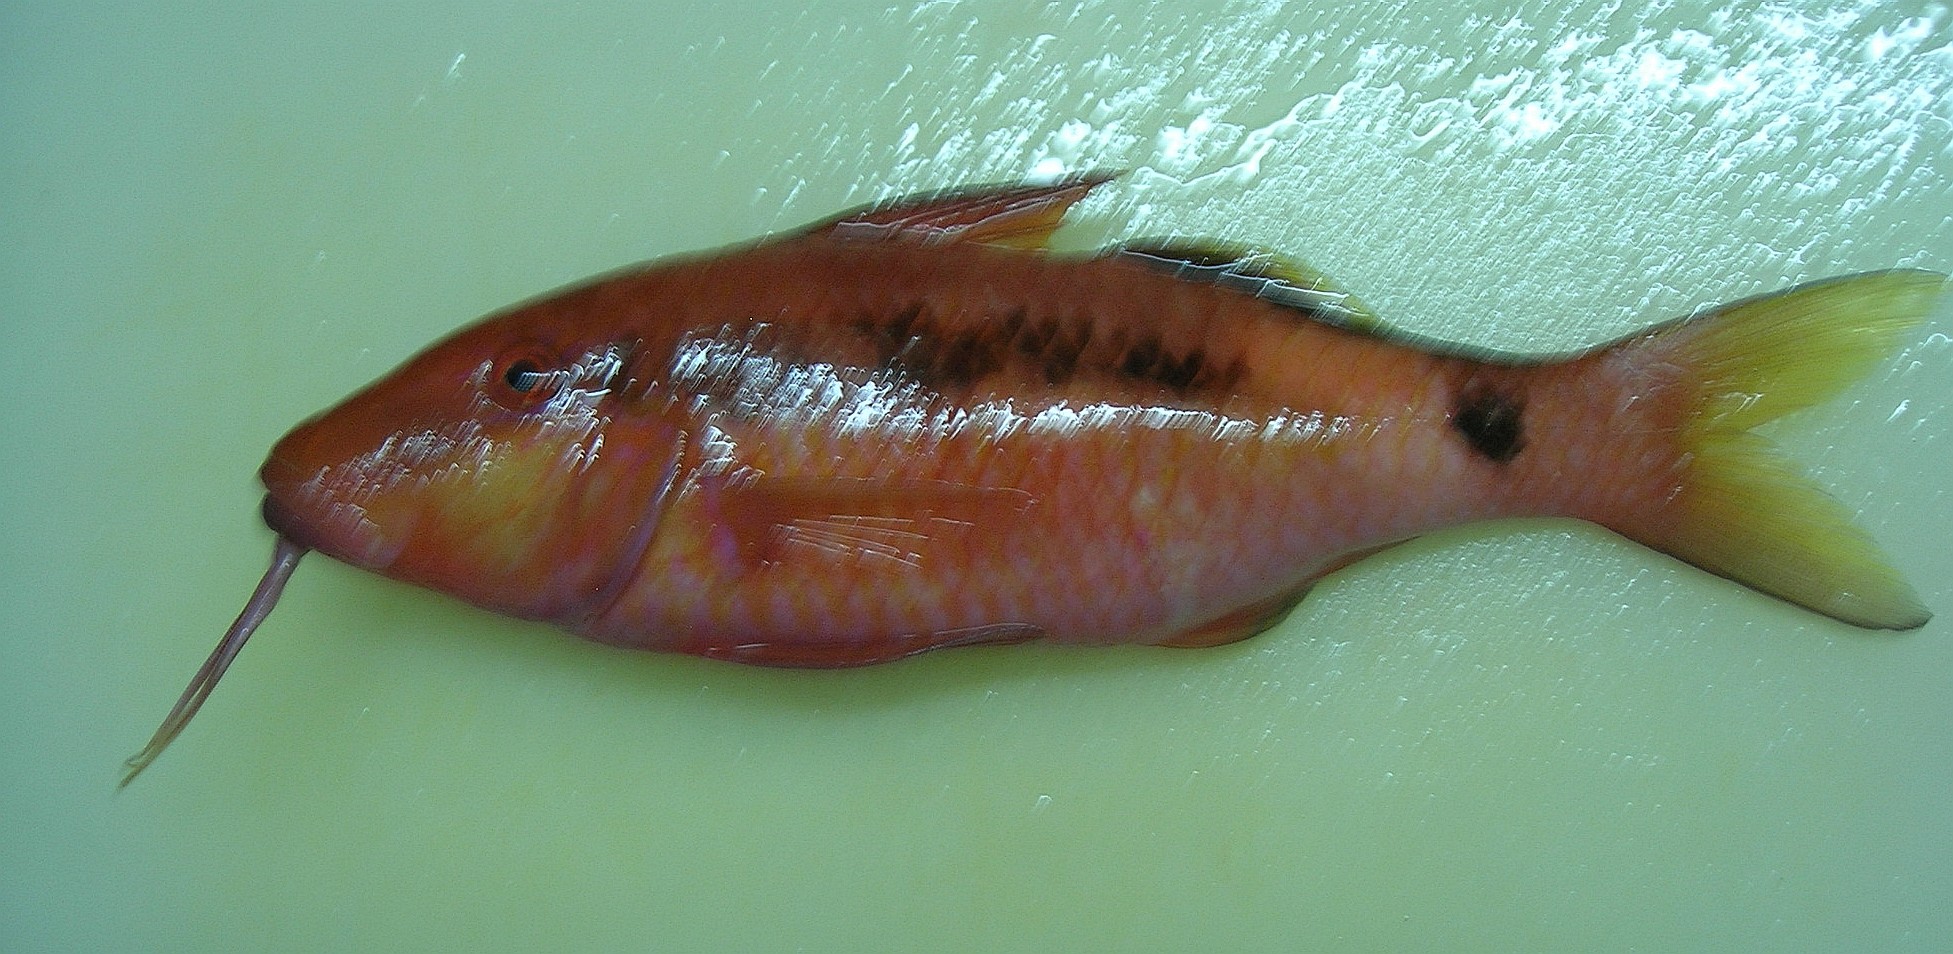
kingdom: Animalia
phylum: Chordata
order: Perciformes
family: Mullidae
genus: Parupeneus
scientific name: Parupeneus macronemus
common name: Long-barbel goatfish
